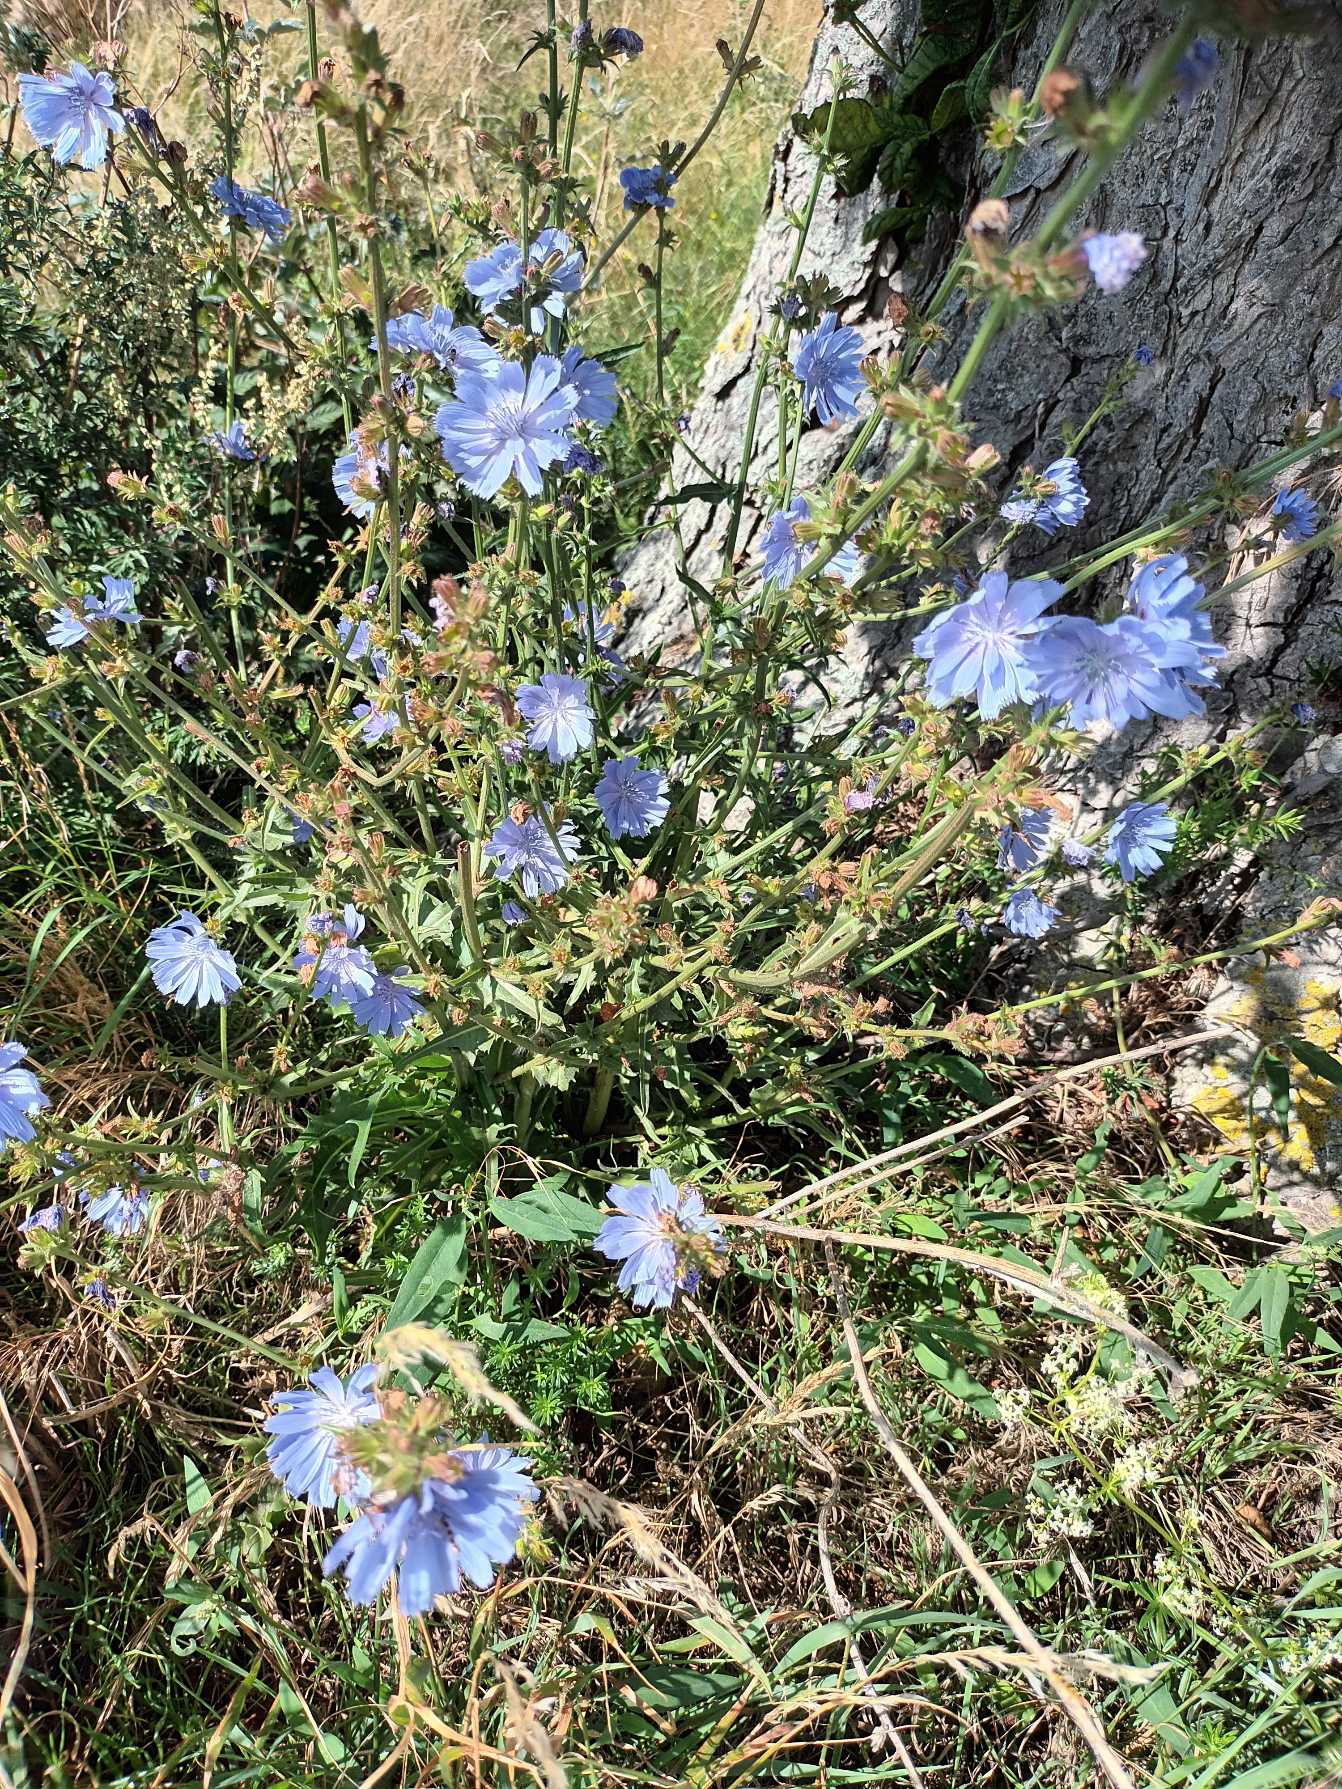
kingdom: Plantae
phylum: Tracheophyta
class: Magnoliopsida
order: Asterales
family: Asteraceae
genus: Cichorium
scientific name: Cichorium intybus
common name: Cikorie
